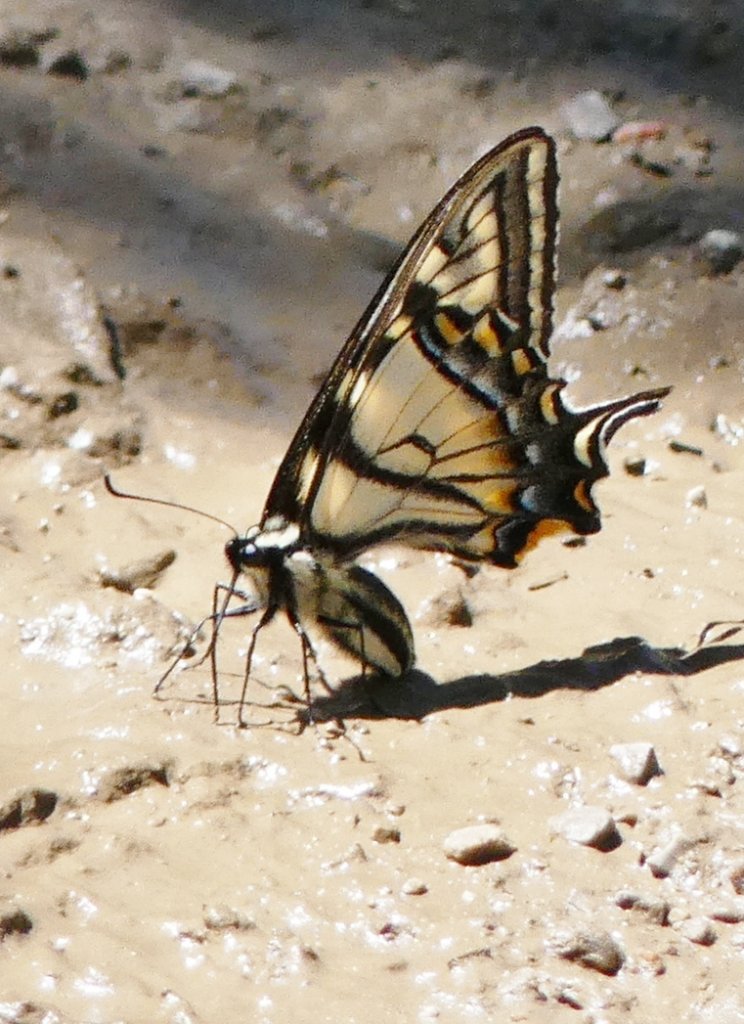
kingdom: Animalia
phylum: Arthropoda
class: Insecta
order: Lepidoptera
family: Papilionidae
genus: Pterourus
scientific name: Pterourus canadensis
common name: Canadian Tiger Swallowtail
